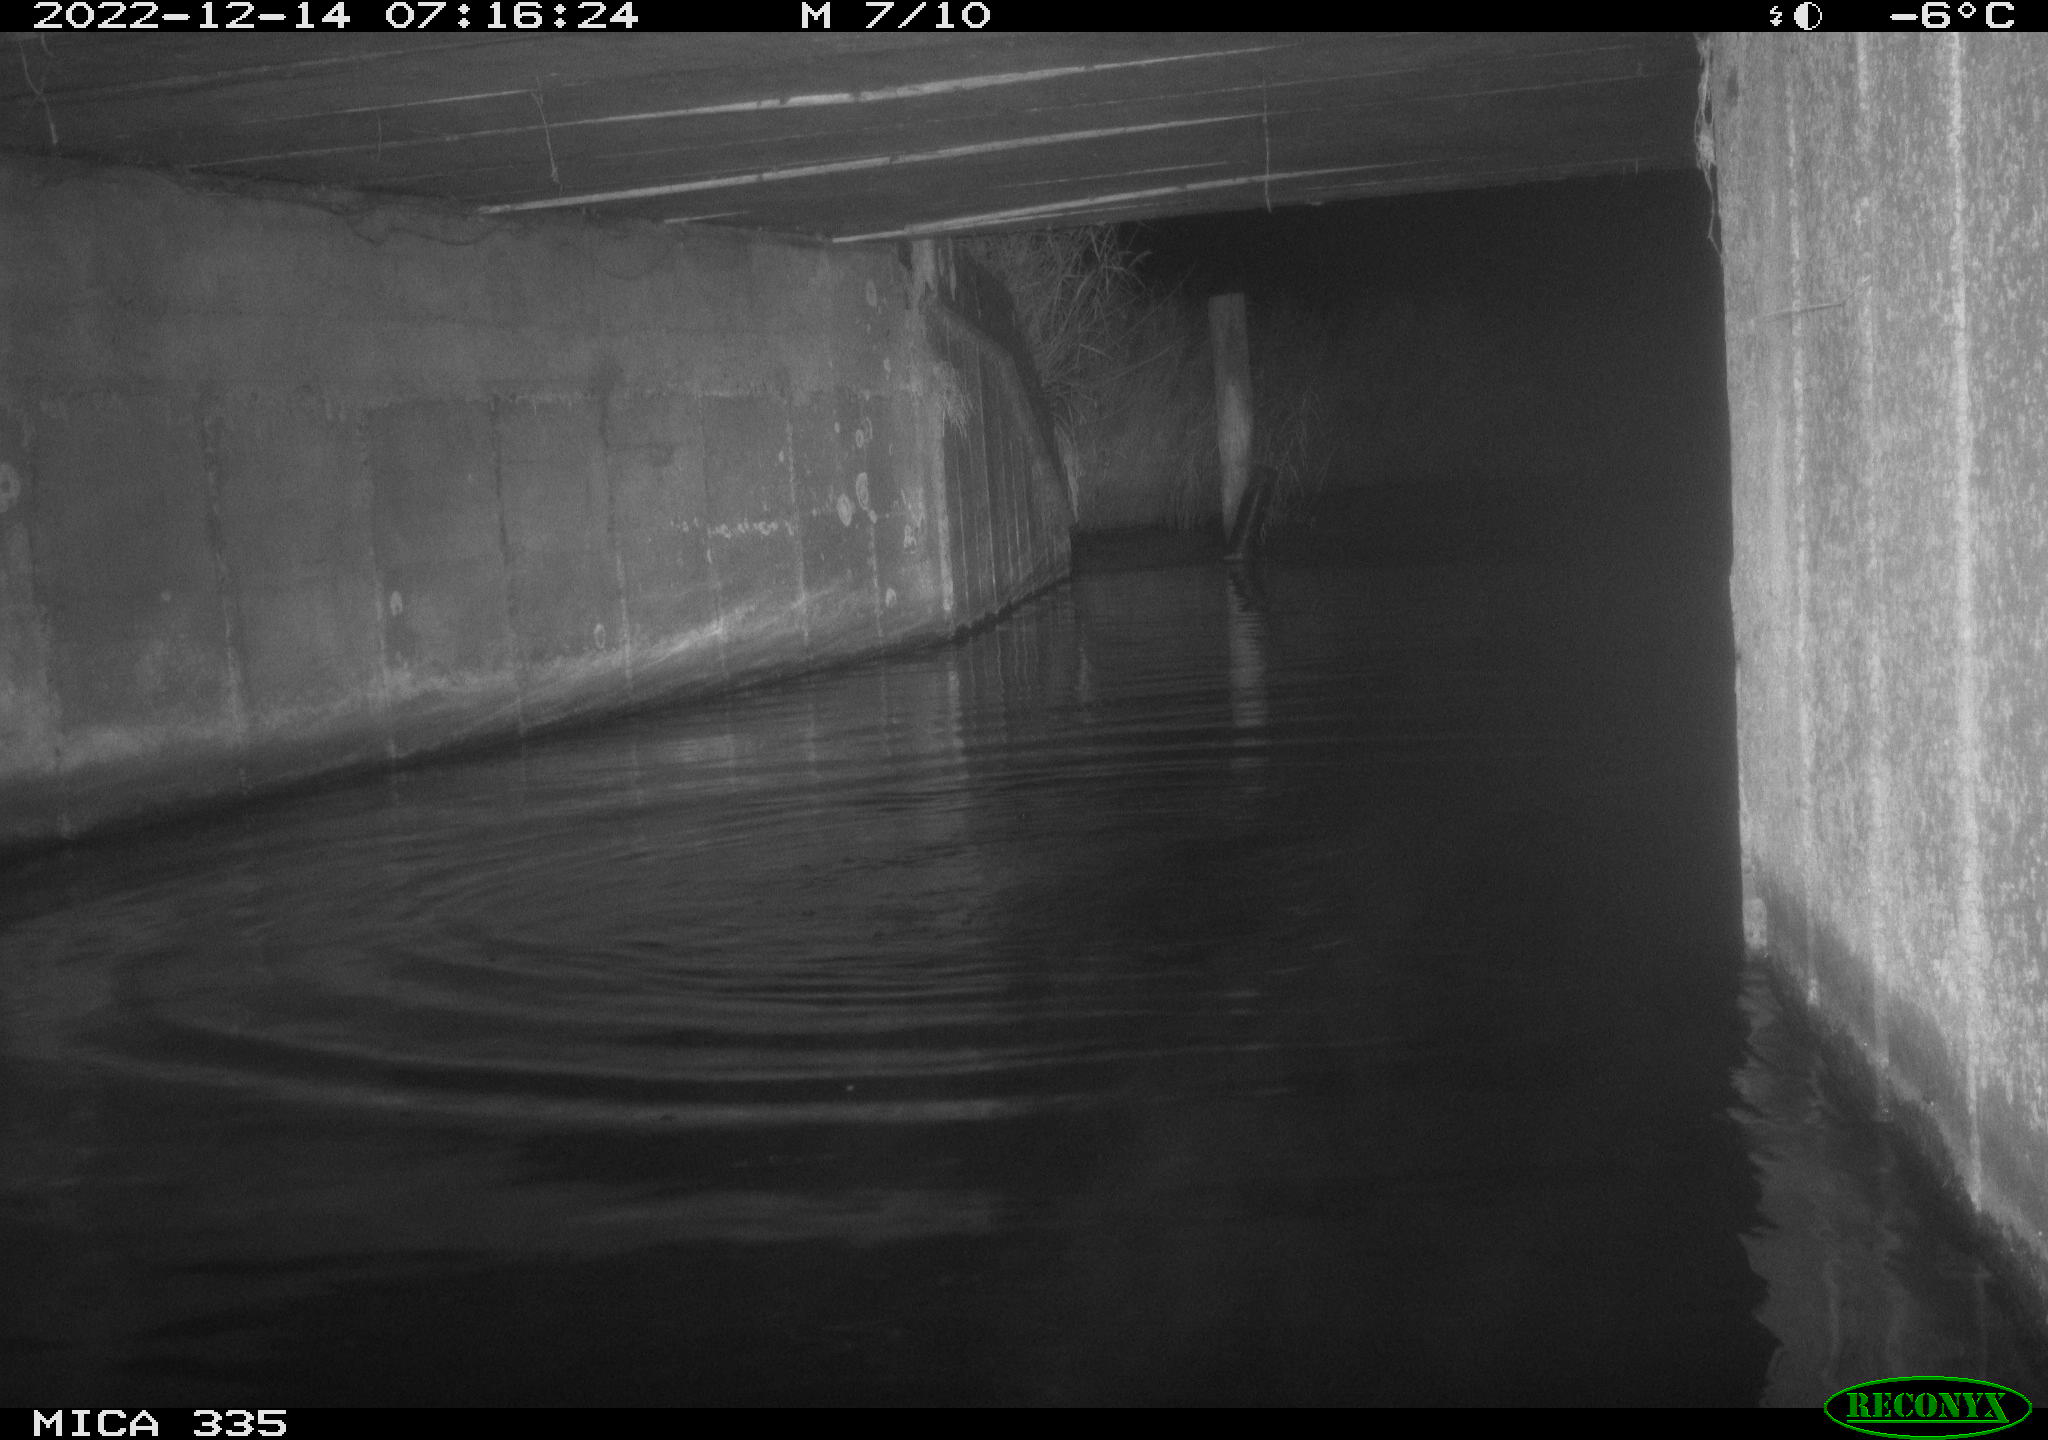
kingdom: Animalia
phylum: Chordata
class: Mammalia
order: Carnivora
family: Mustelidae
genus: Lutra
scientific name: Lutra lutra
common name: European otter
